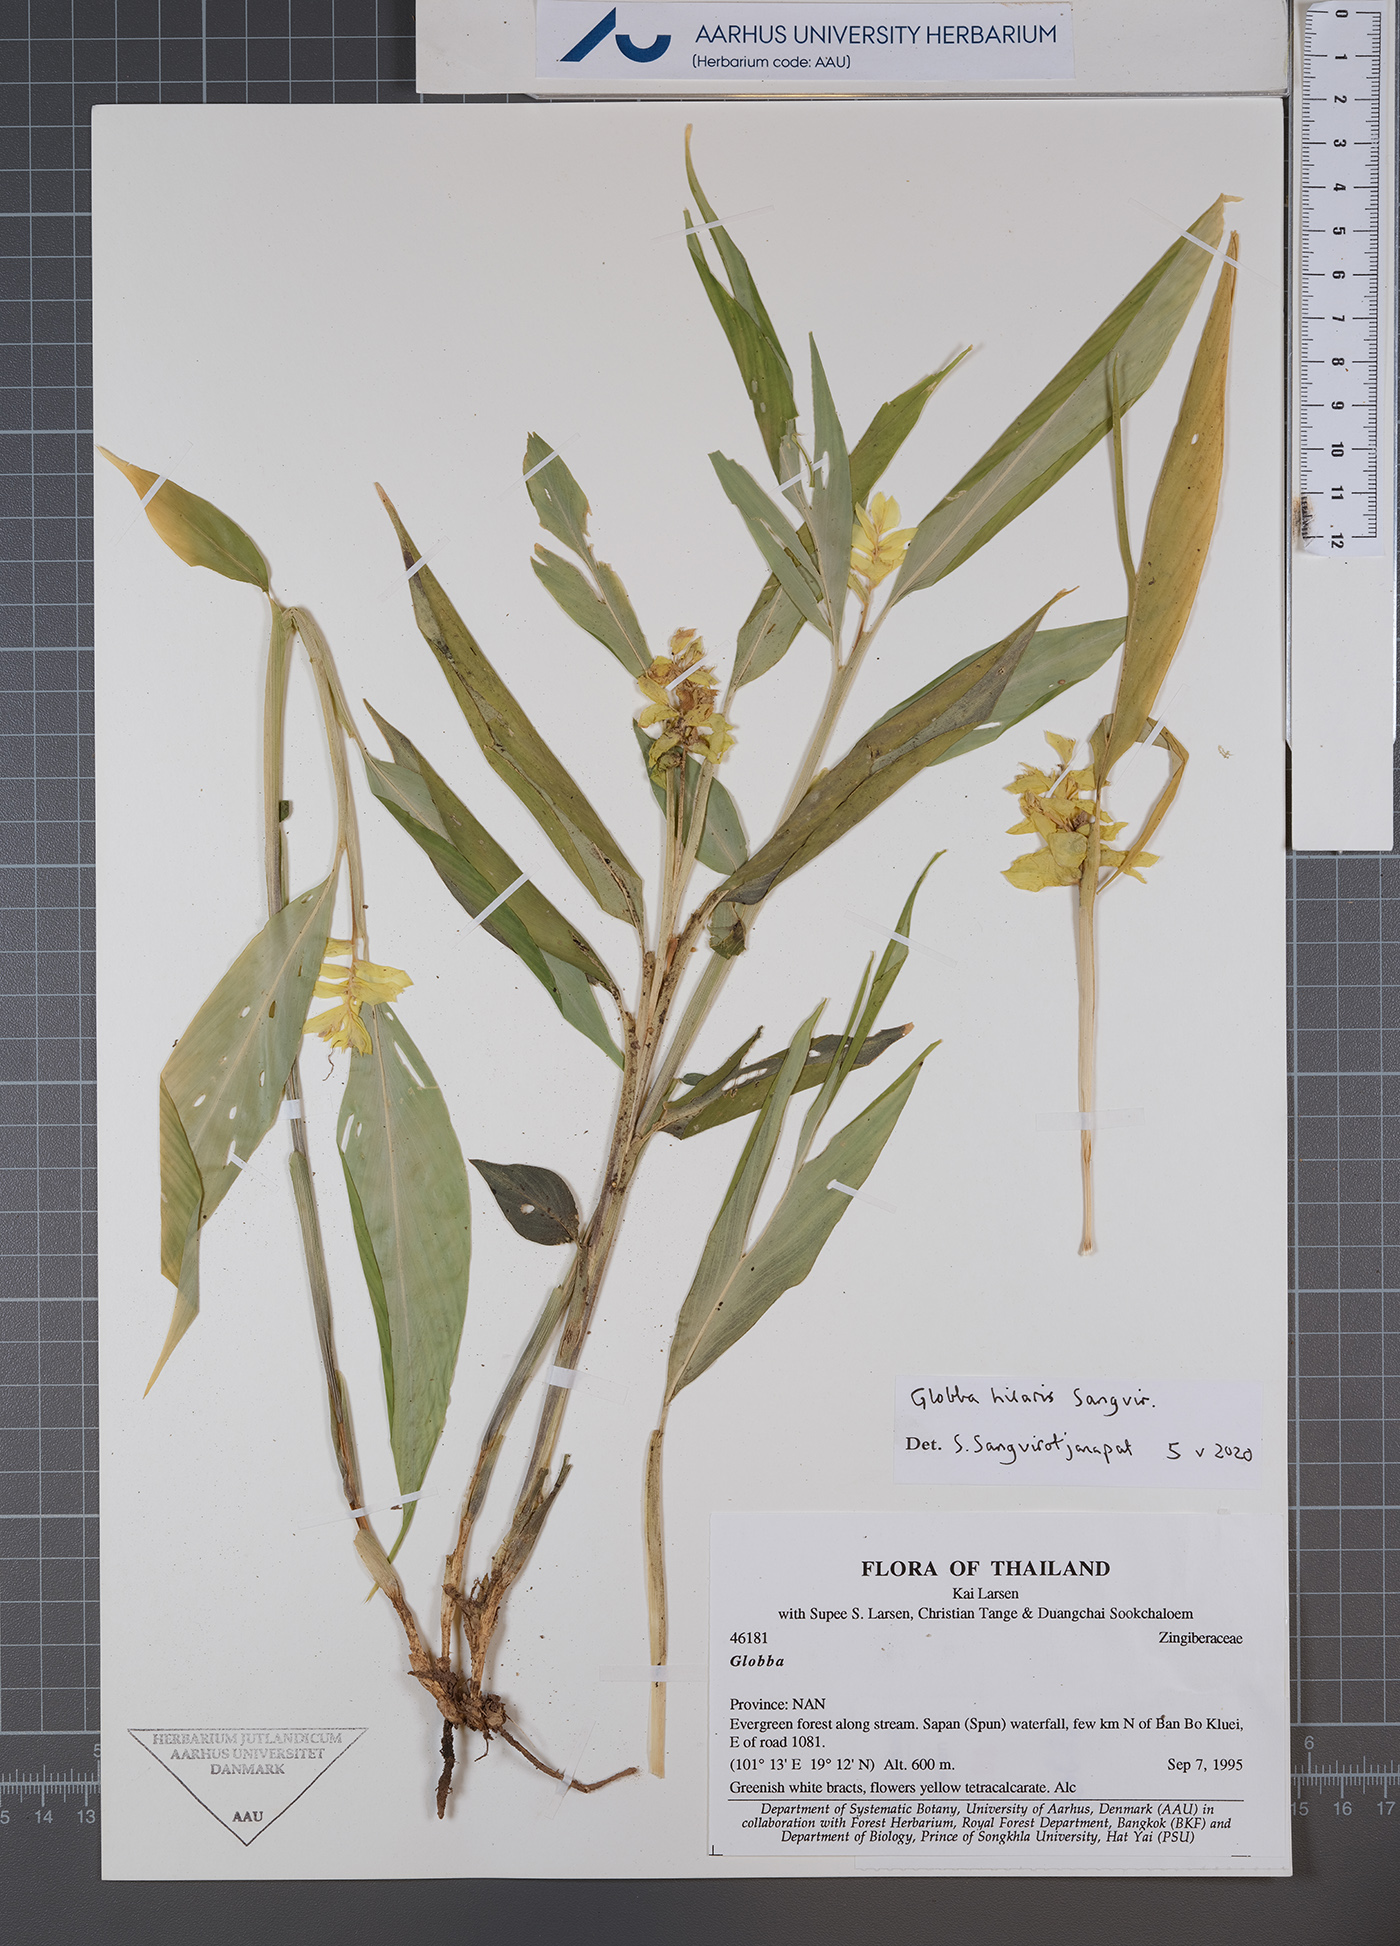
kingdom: Plantae
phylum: Tracheophyta
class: Liliopsida
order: Zingiberales
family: Zingiberaceae
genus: Globba
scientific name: Globba hilaris
